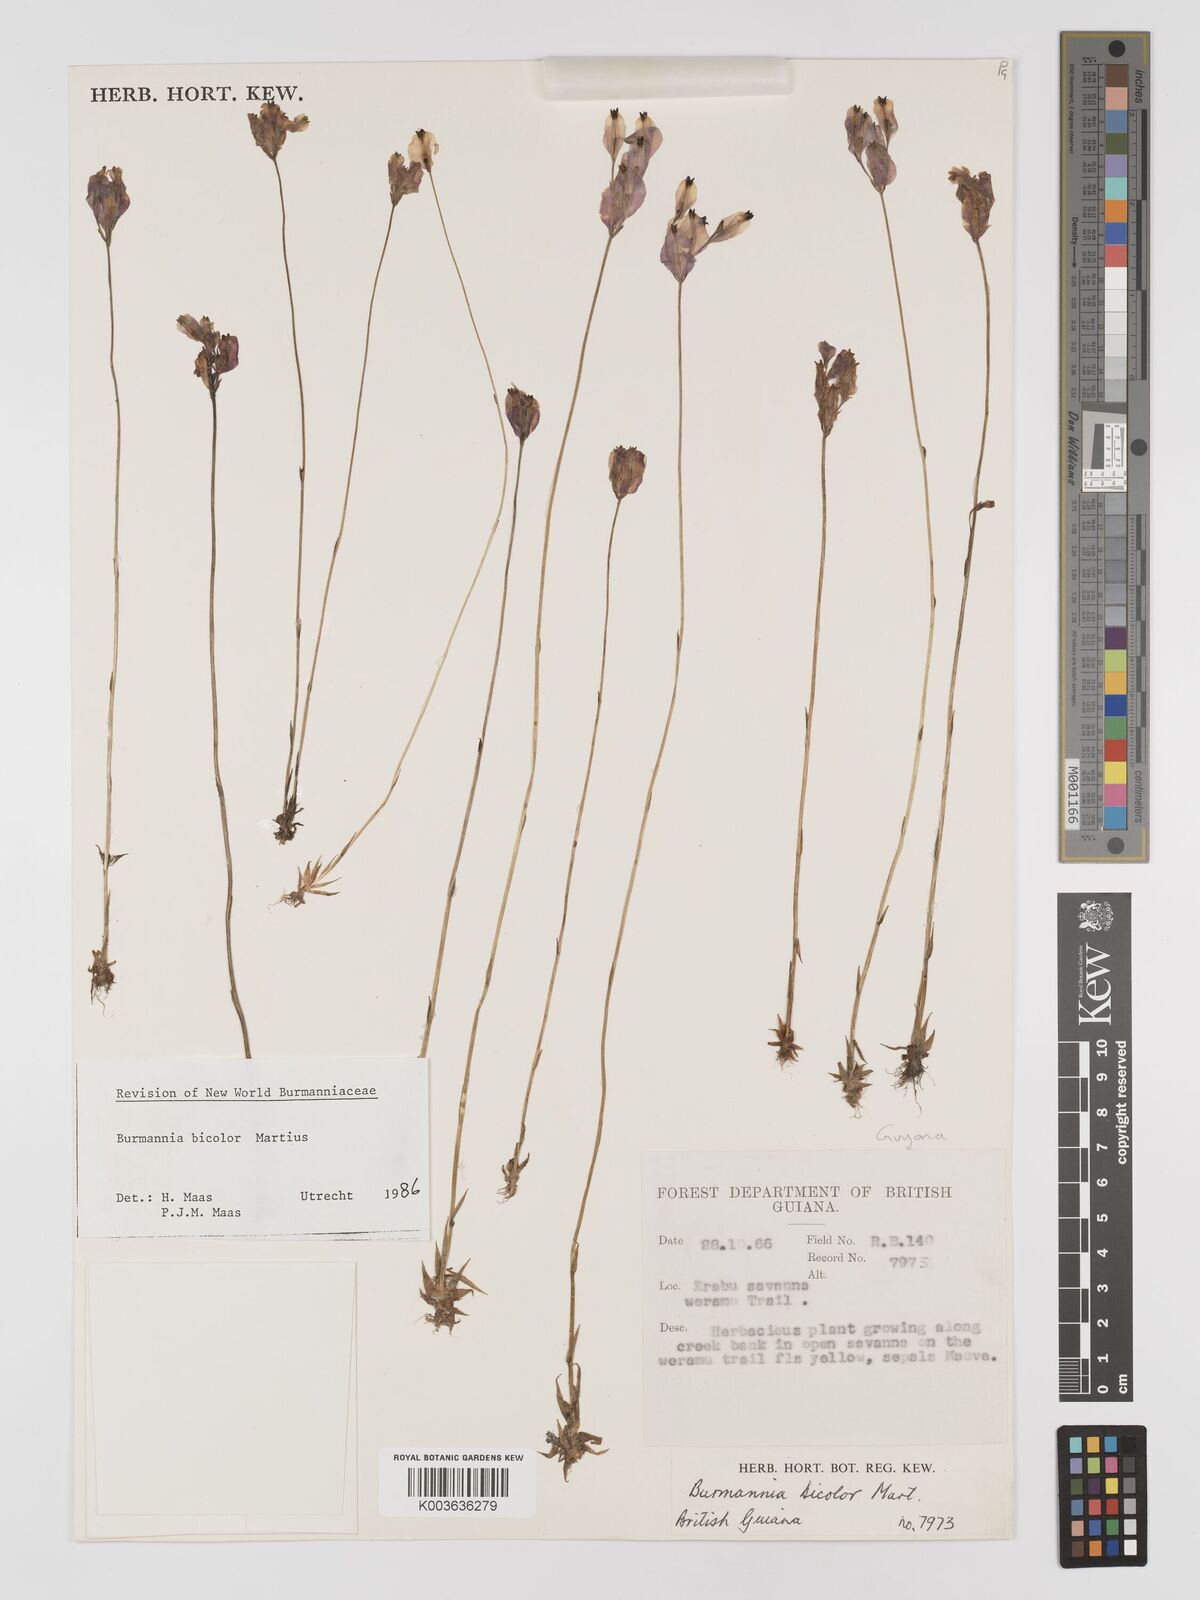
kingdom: Plantae
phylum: Tracheophyta
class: Liliopsida
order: Dioscoreales
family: Burmanniaceae
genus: Burmannia
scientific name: Burmannia bicolor
